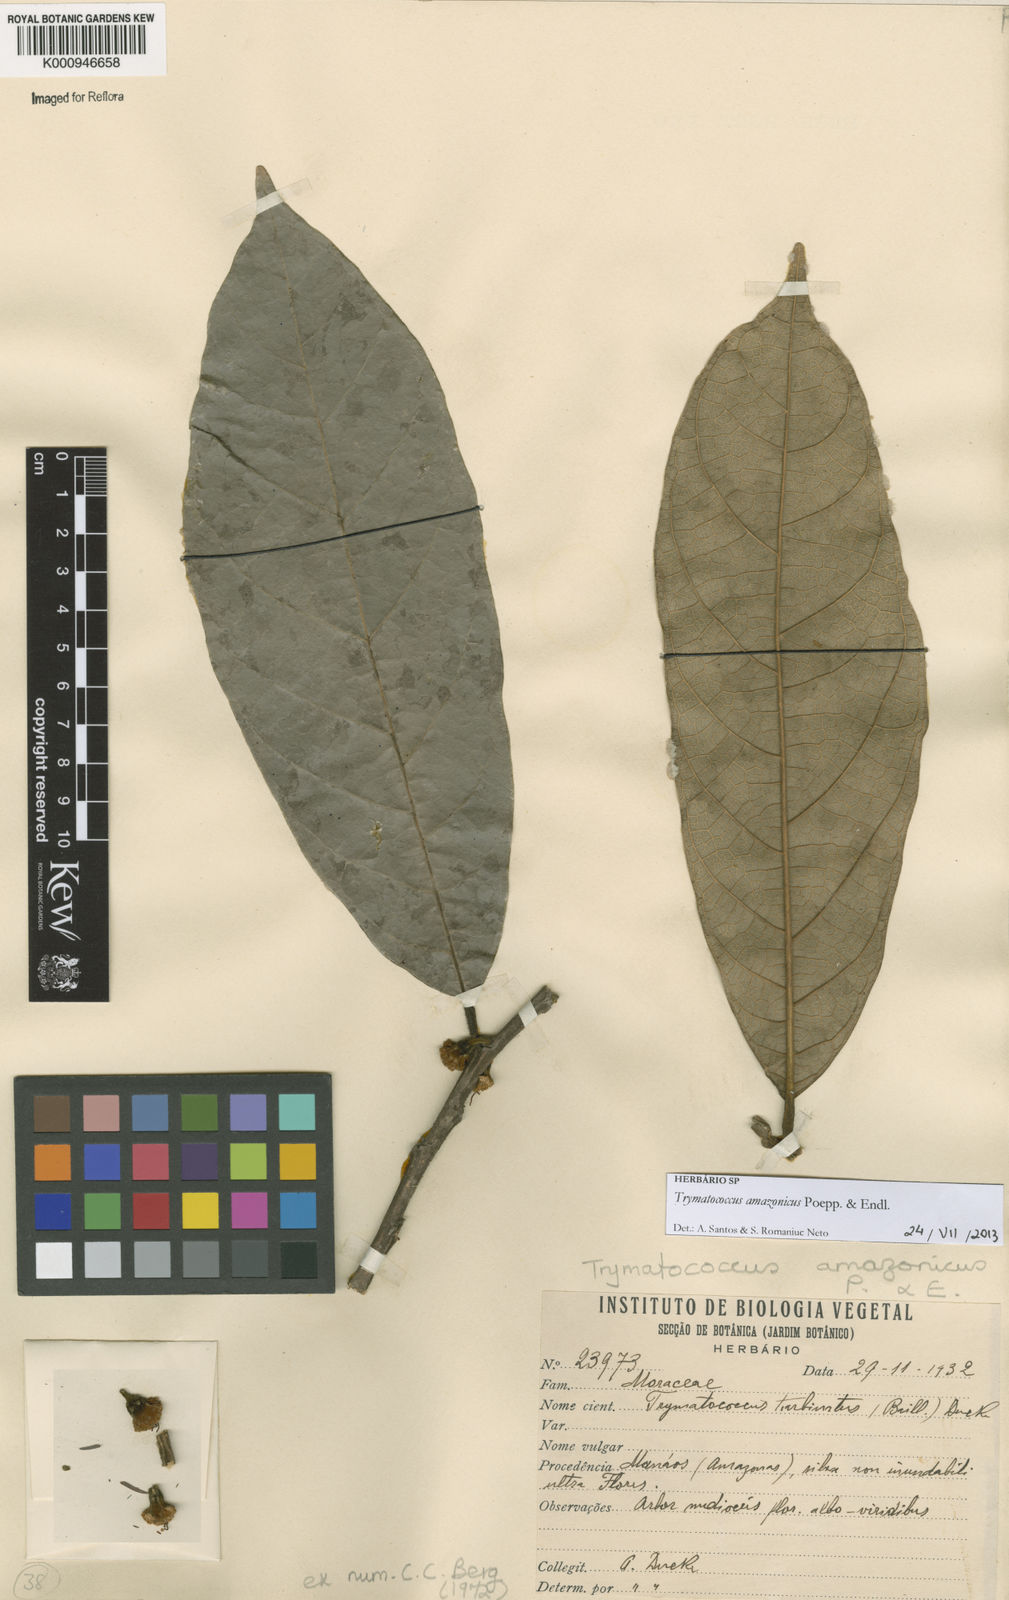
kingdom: Plantae
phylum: Tracheophyta
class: Magnoliopsida
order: Rosales
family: Moraceae
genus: Brosimum
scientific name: Brosimum amazonicum
